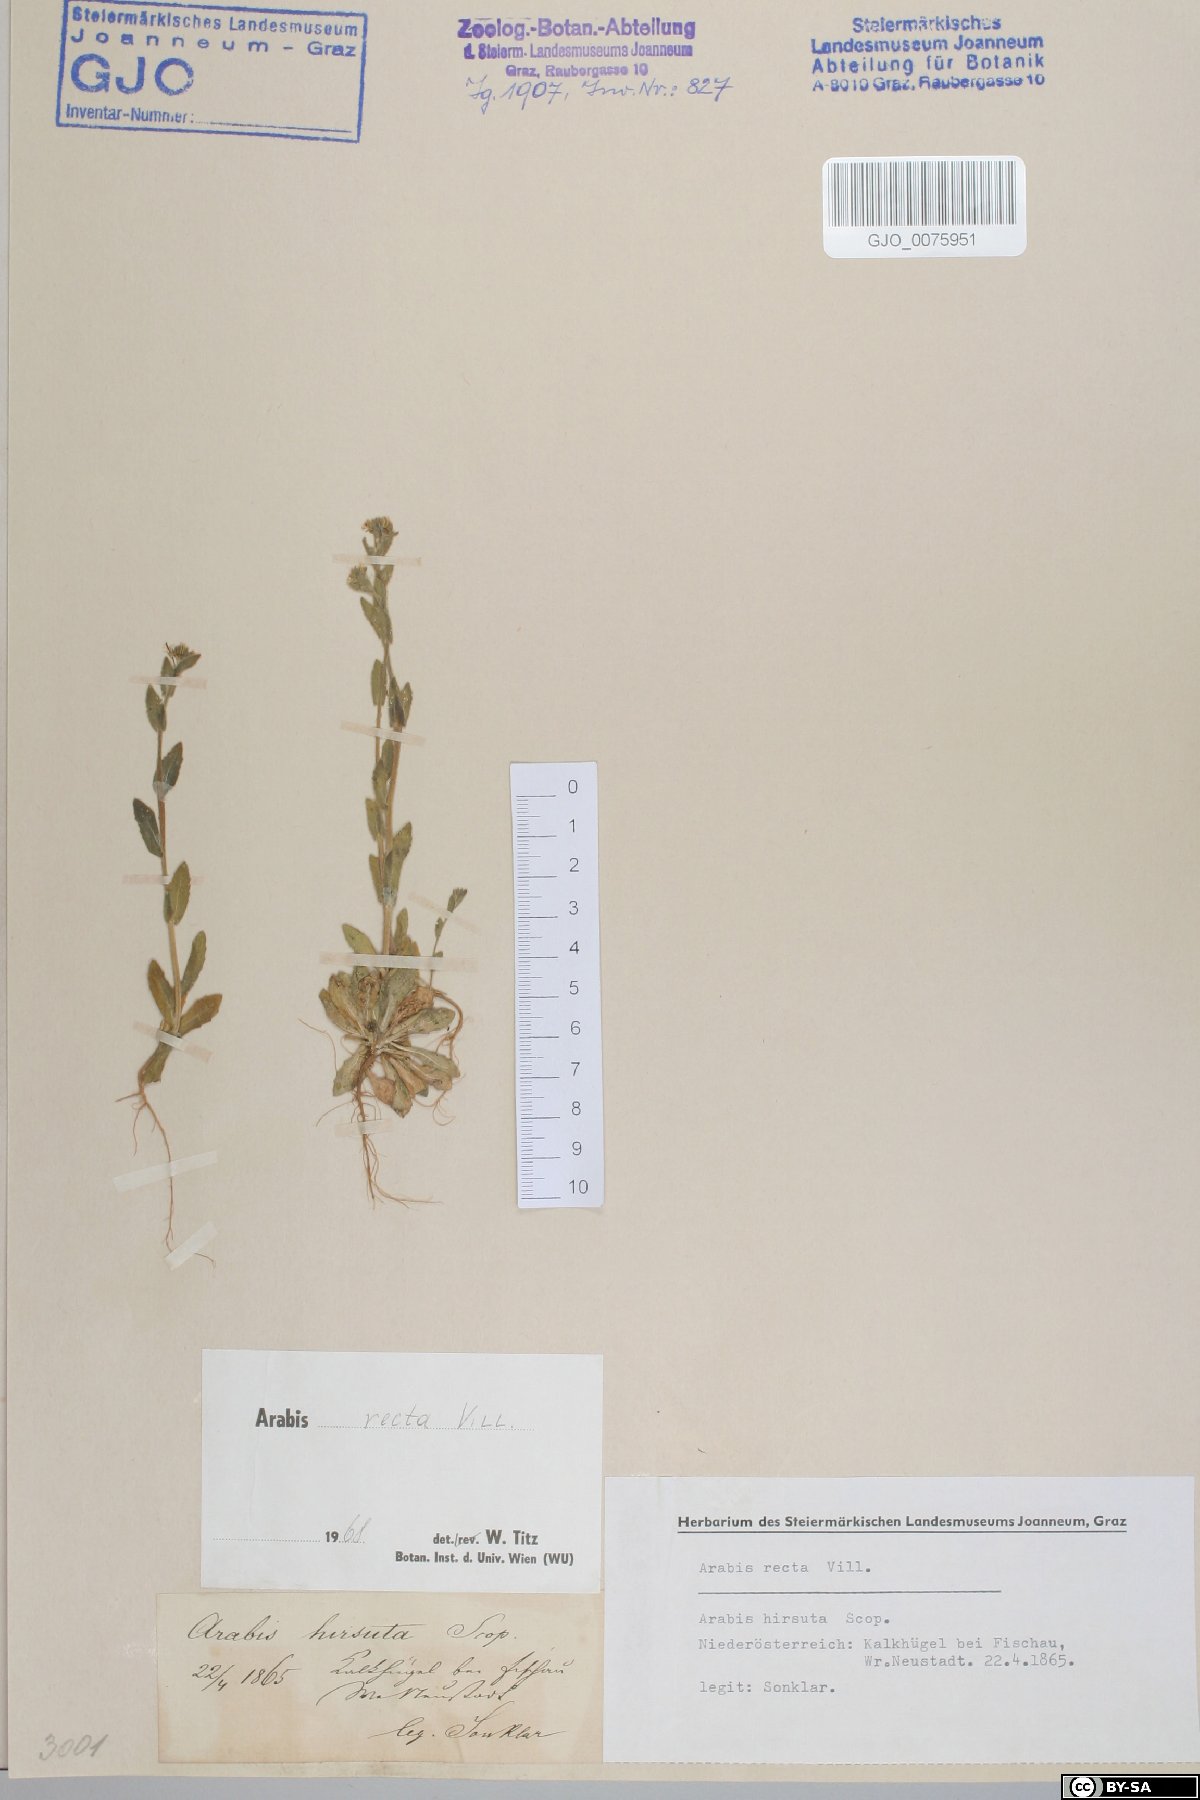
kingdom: Plantae
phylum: Tracheophyta
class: Magnoliopsida
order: Brassicales
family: Brassicaceae
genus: Arabis
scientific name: Arabis auriculata
